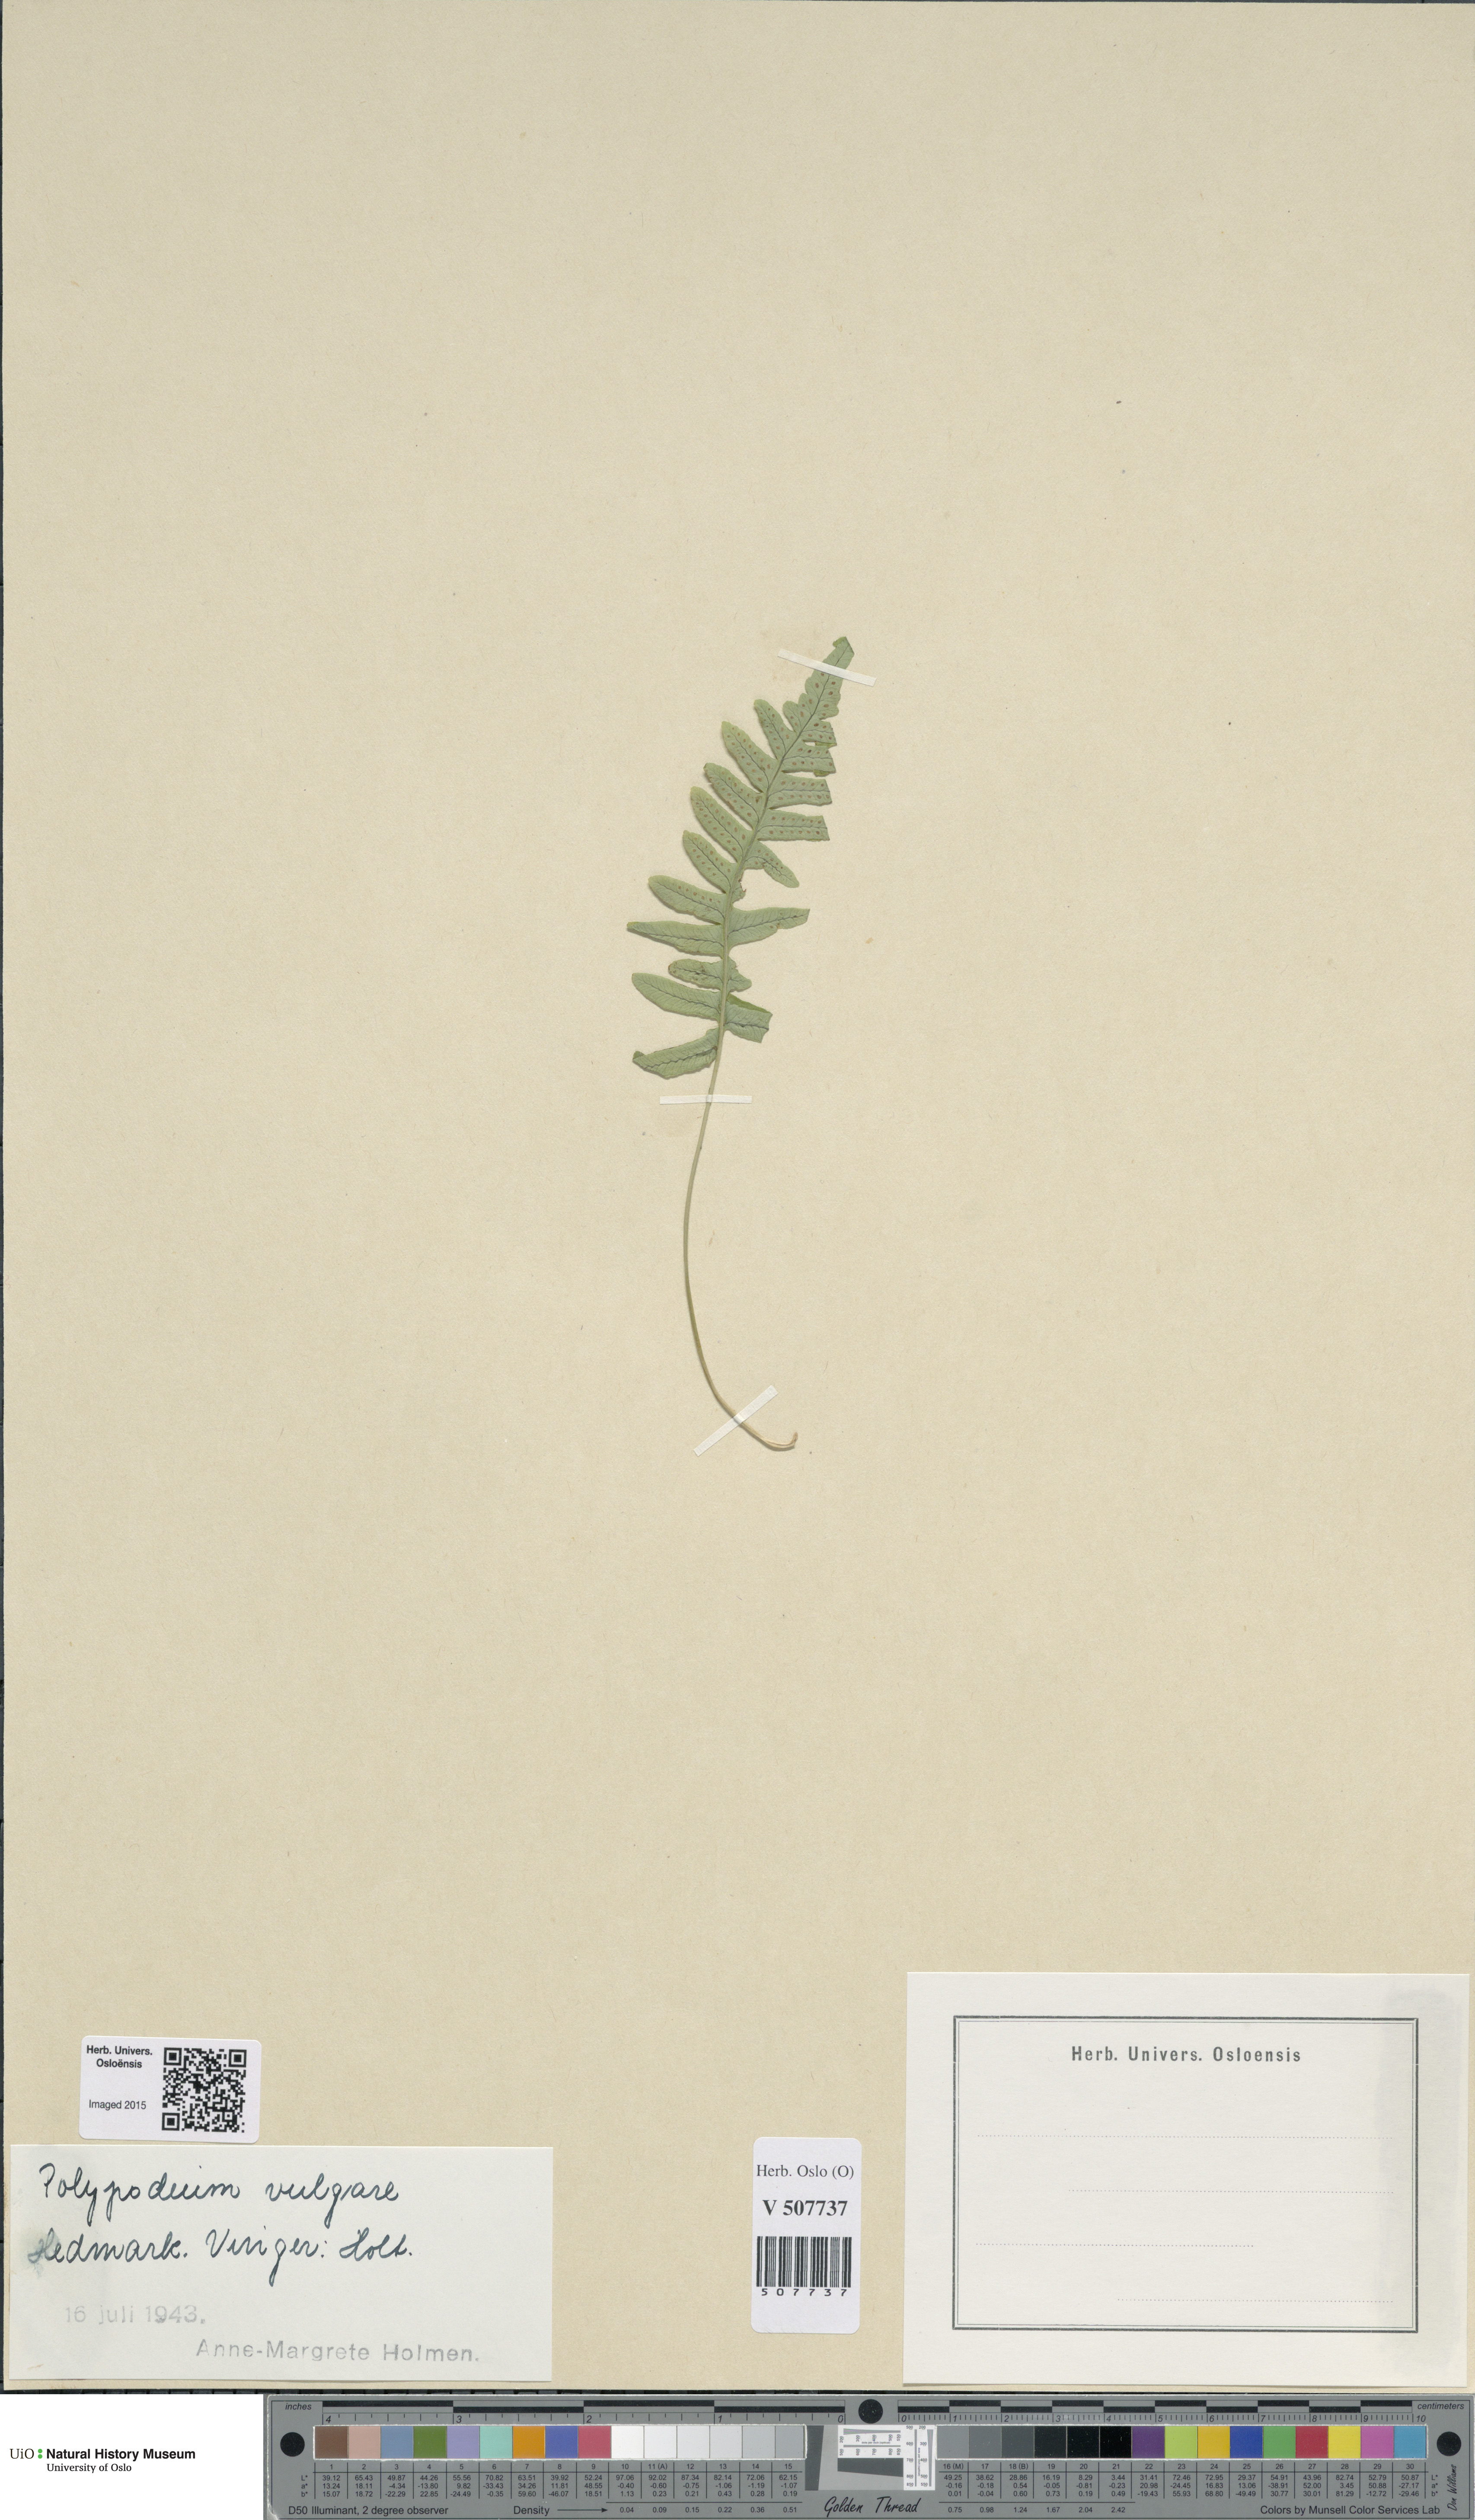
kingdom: Plantae
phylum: Tracheophyta
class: Polypodiopsida
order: Polypodiales
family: Polypodiaceae
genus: Polypodium
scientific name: Polypodium vulgare
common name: Common polypody
